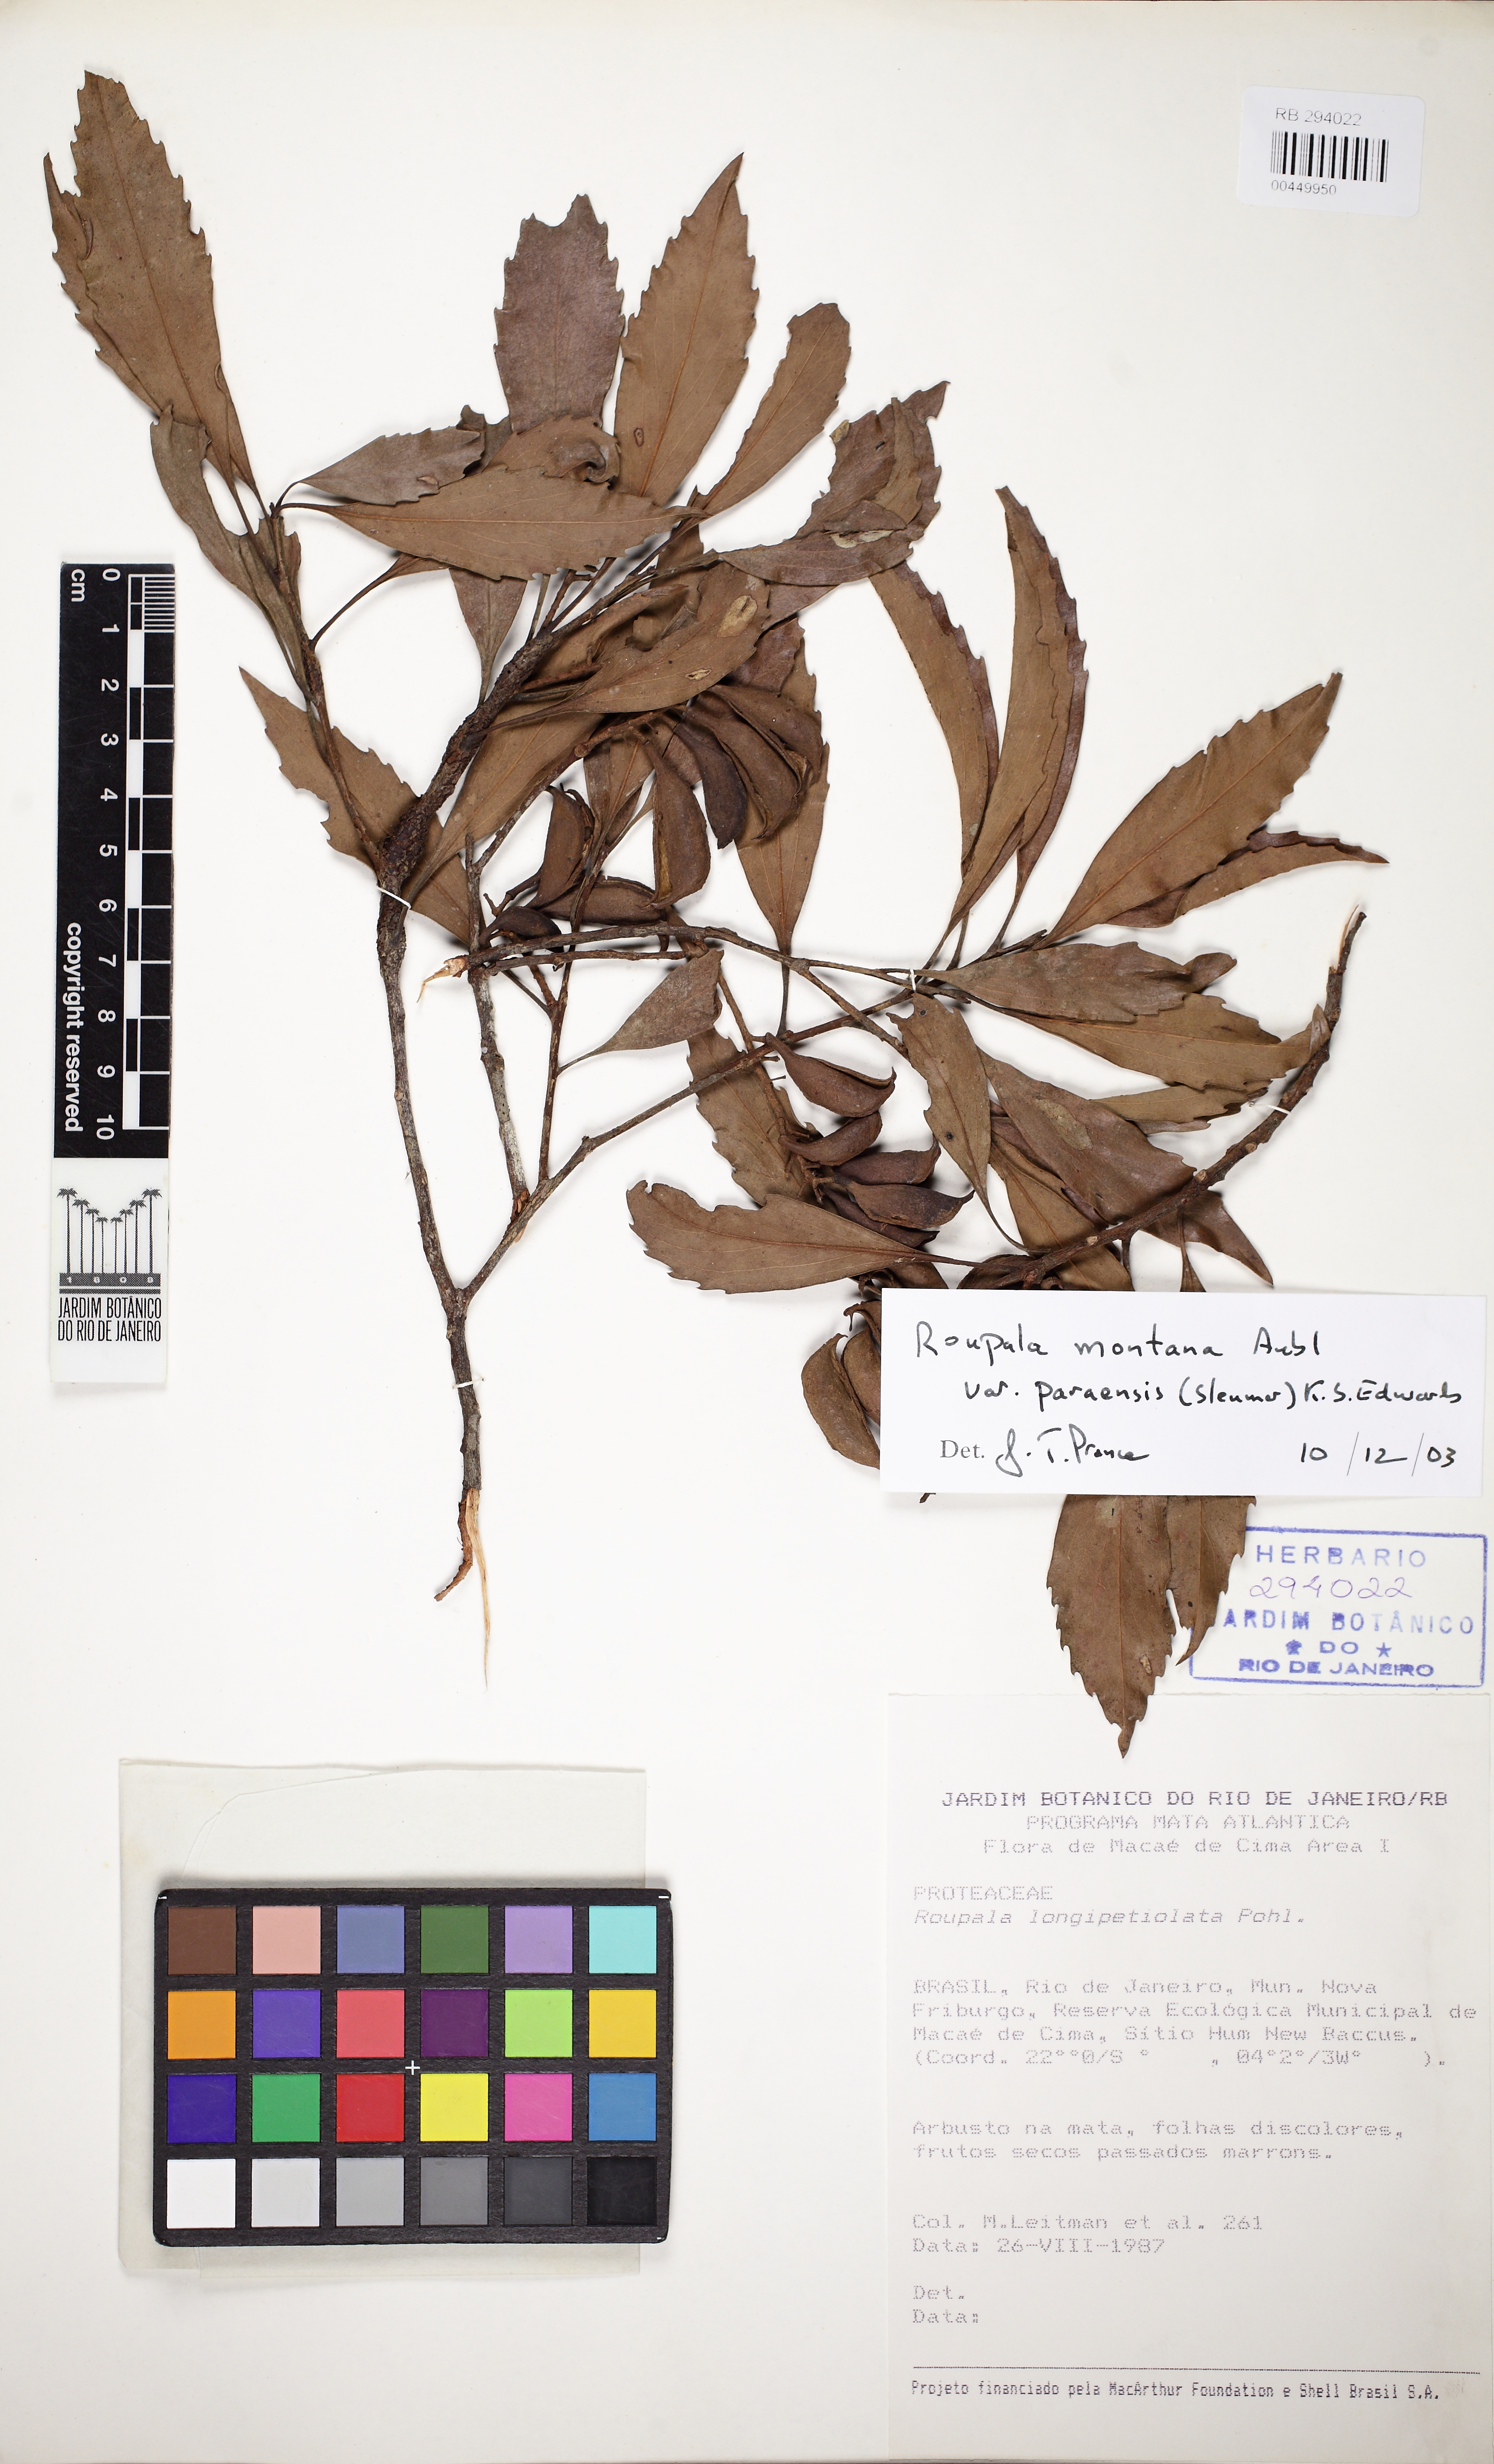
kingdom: Plantae
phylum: Tracheophyta
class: Magnoliopsida
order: Proteales
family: Proteaceae
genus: Roupala
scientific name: Roupala montana
